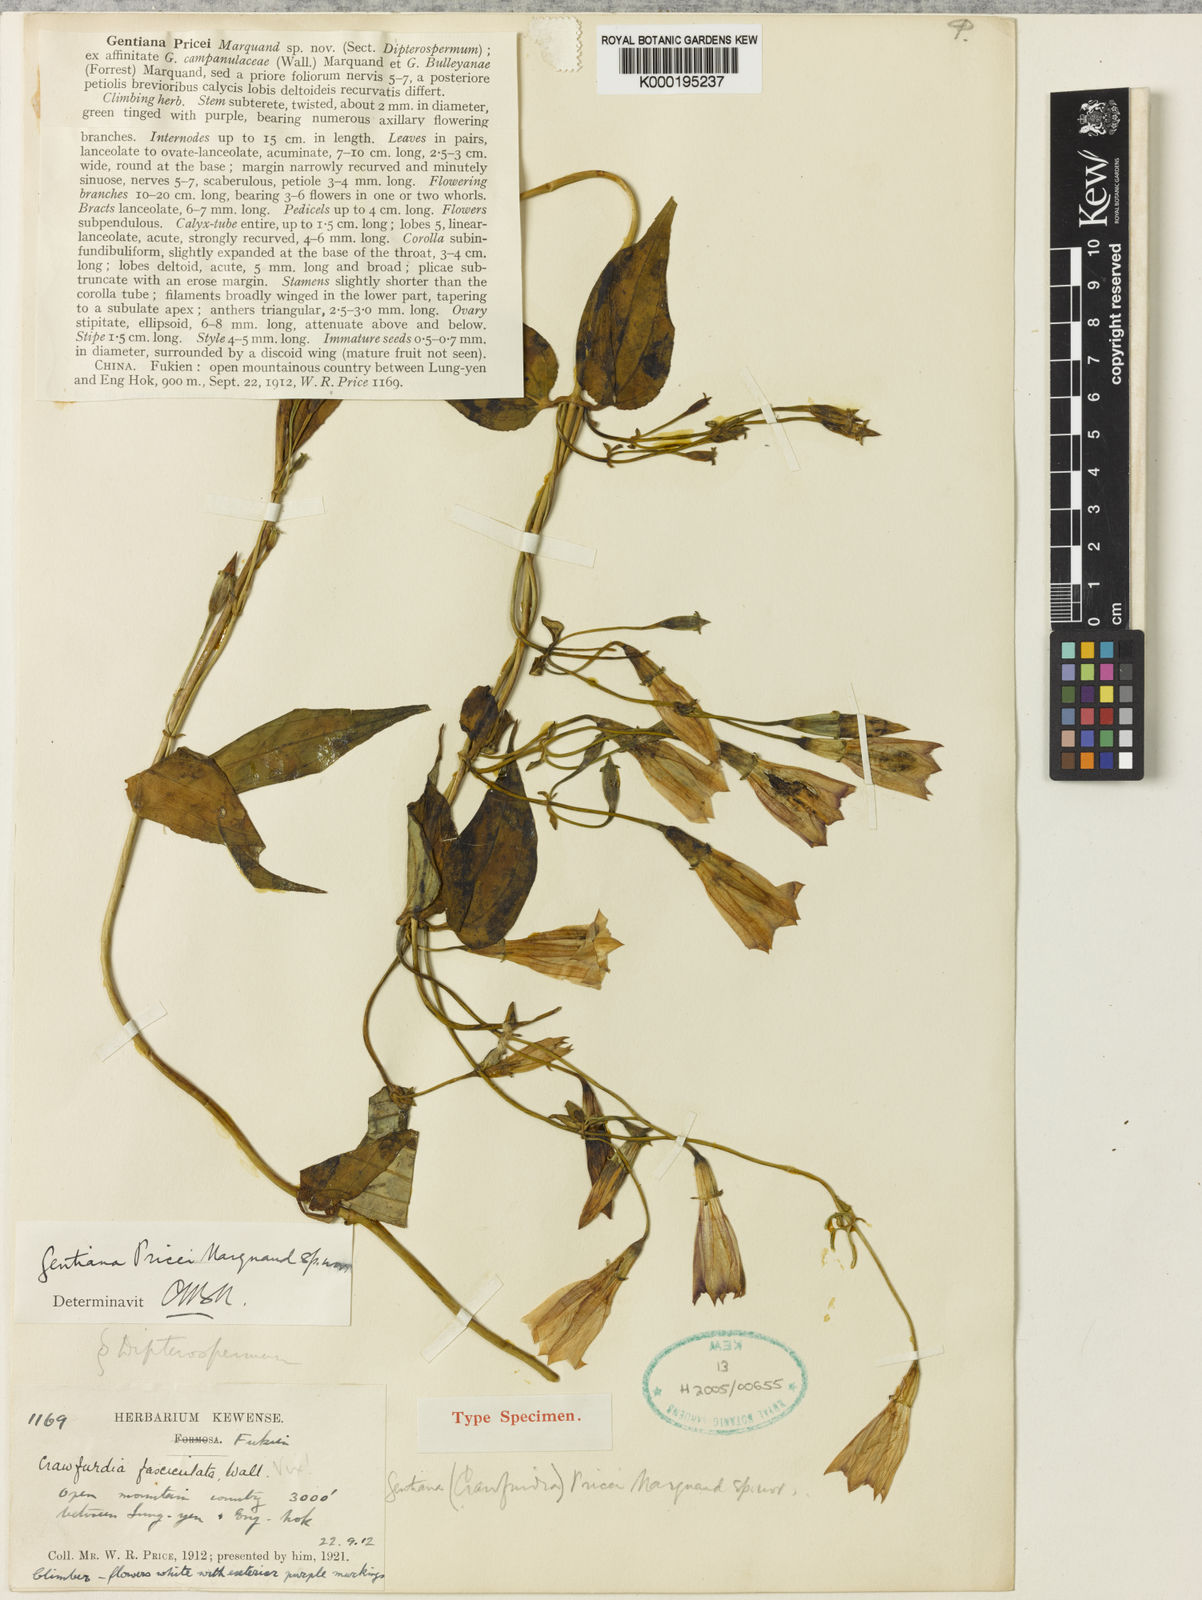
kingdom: Plantae
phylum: Tracheophyta
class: Magnoliopsida
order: Gentianales
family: Gentianaceae
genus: Crawfurdia
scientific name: Crawfurdia pricei
